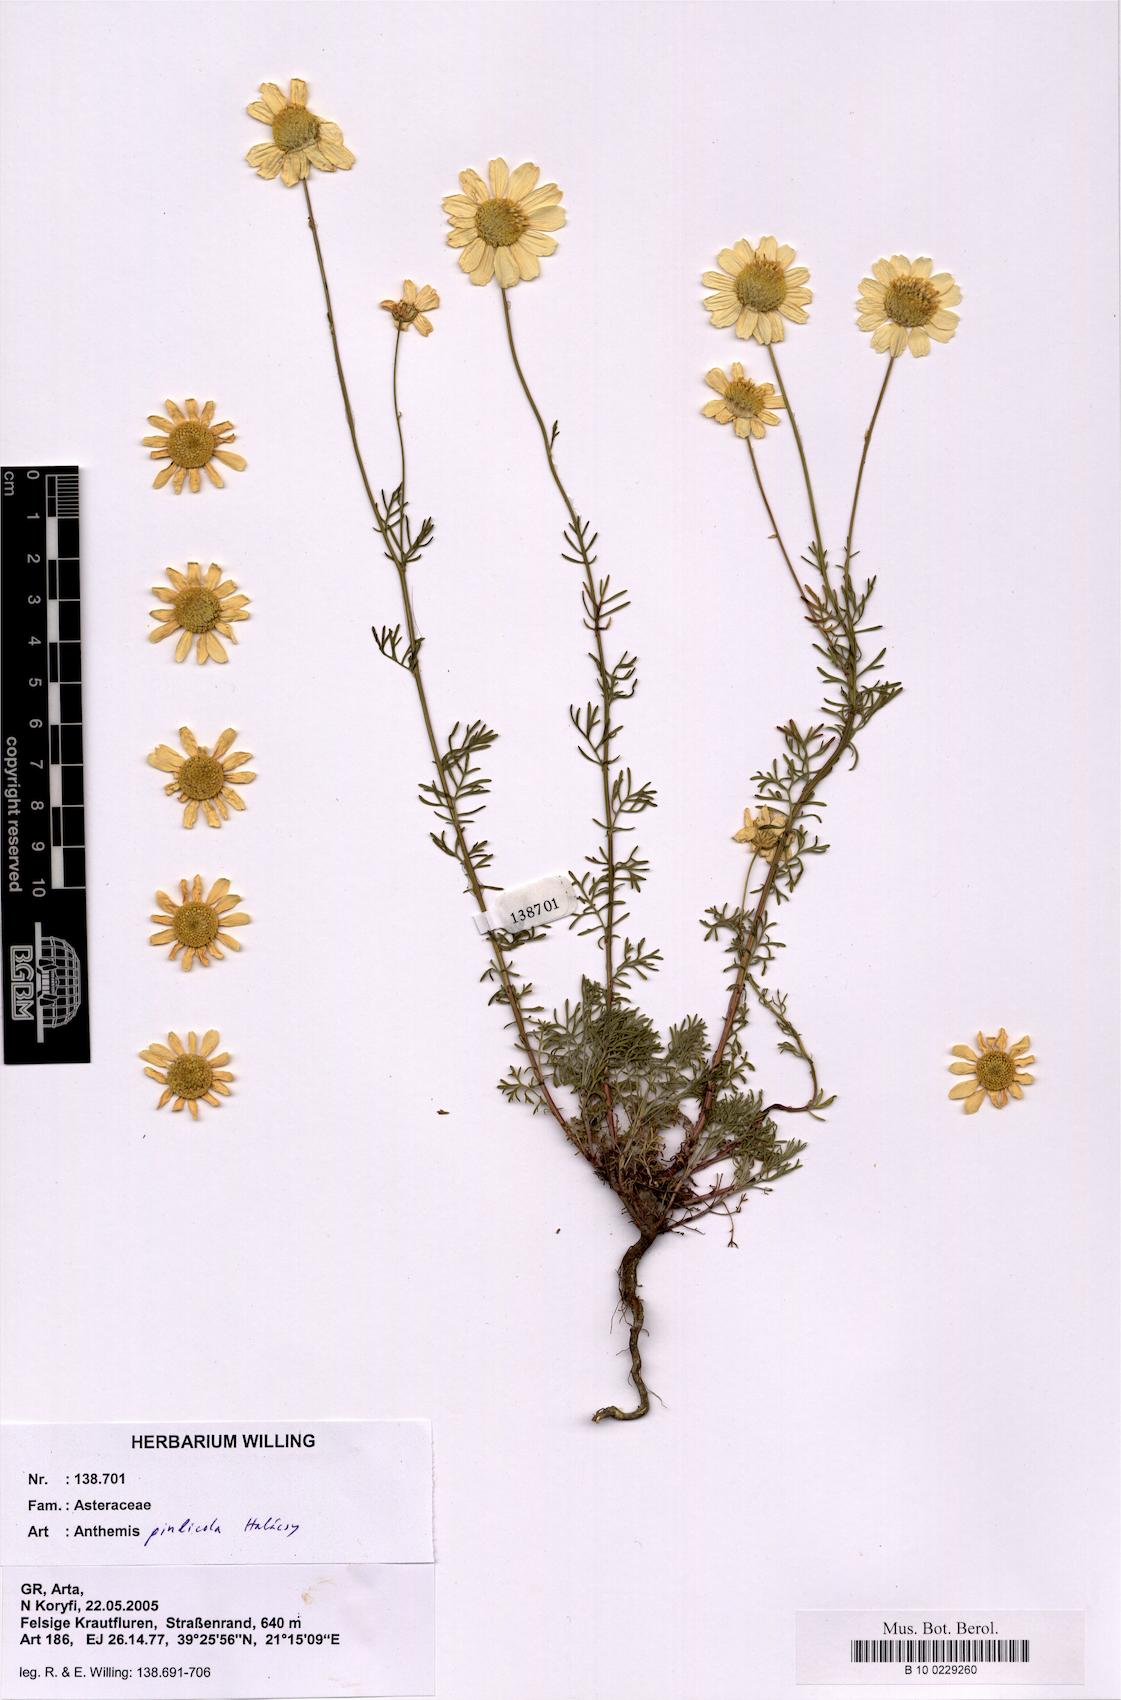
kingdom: Plantae
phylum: Tracheophyta
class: Magnoliopsida
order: Asterales
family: Asteraceae
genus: Anthemis
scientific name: Anthemis pindicola
